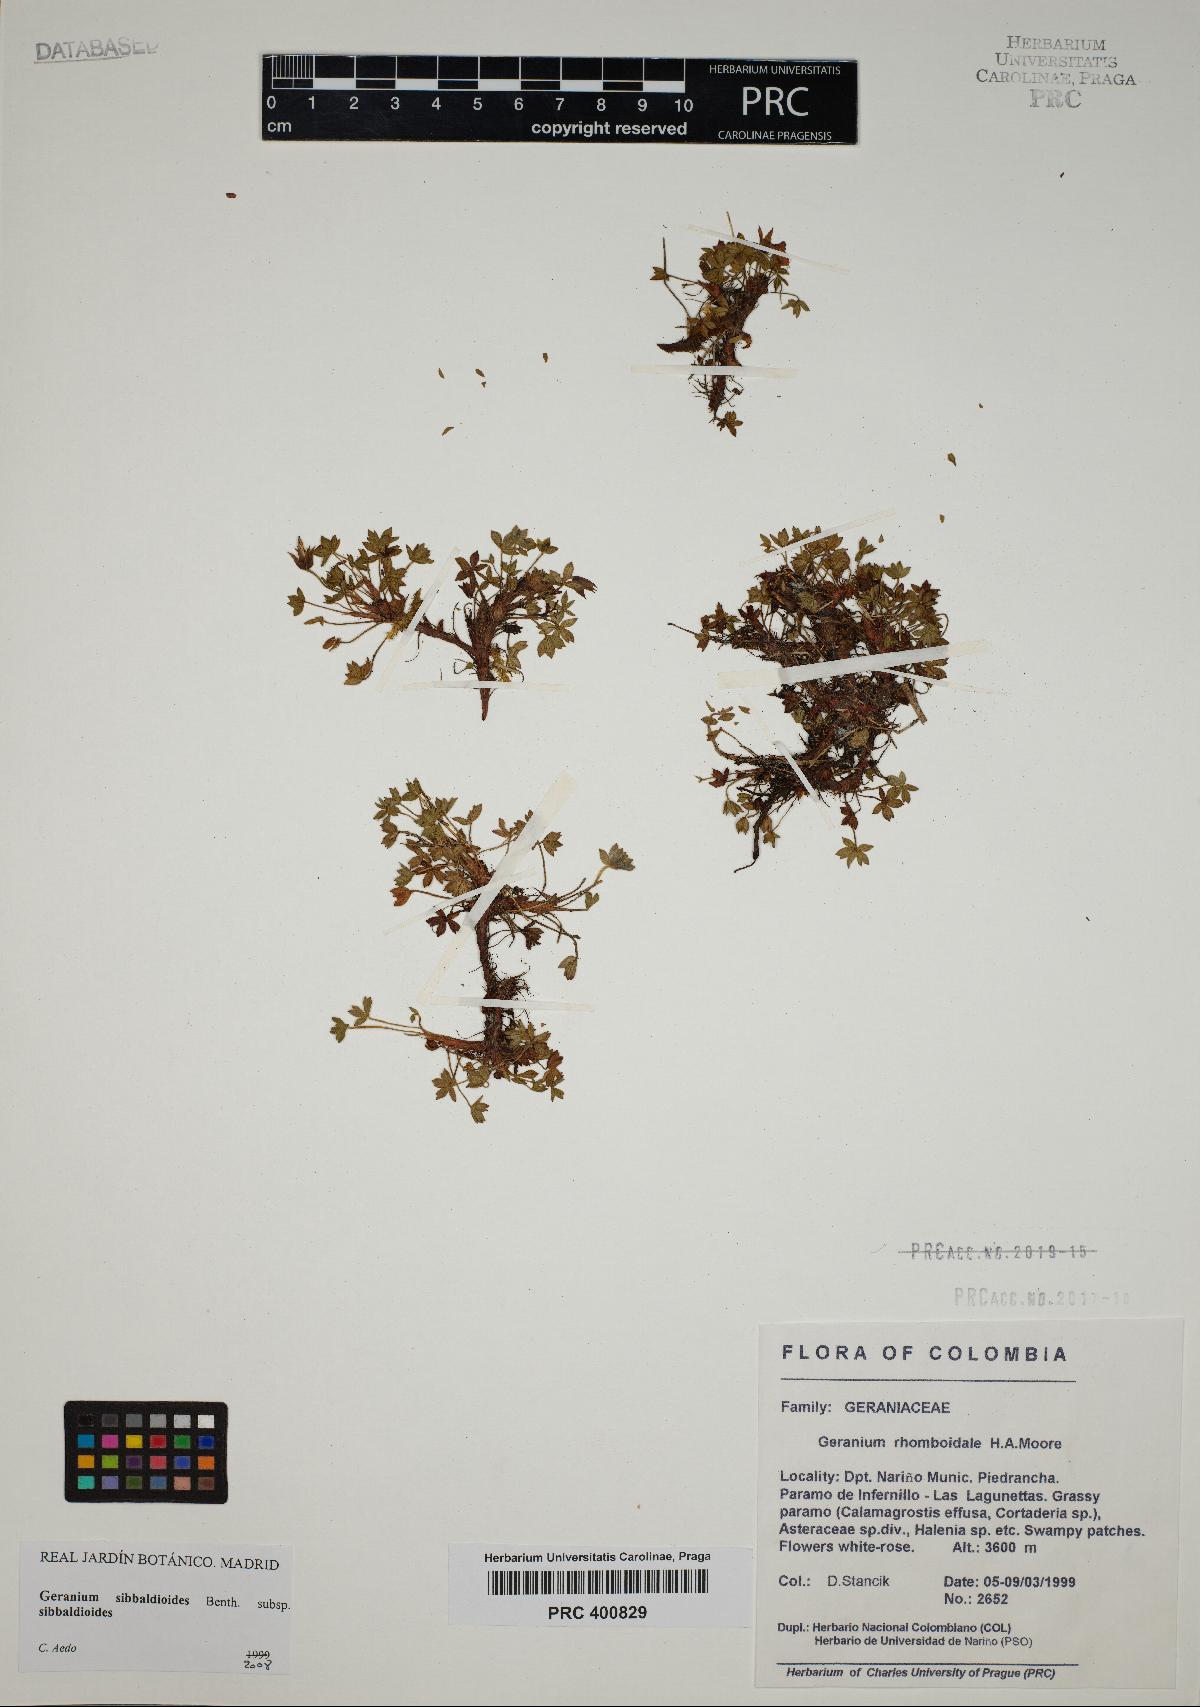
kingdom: Plantae
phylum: Tracheophyta
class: Magnoliopsida
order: Geraniales
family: Geraniaceae
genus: Geranium
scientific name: Geranium sibbaldioides
